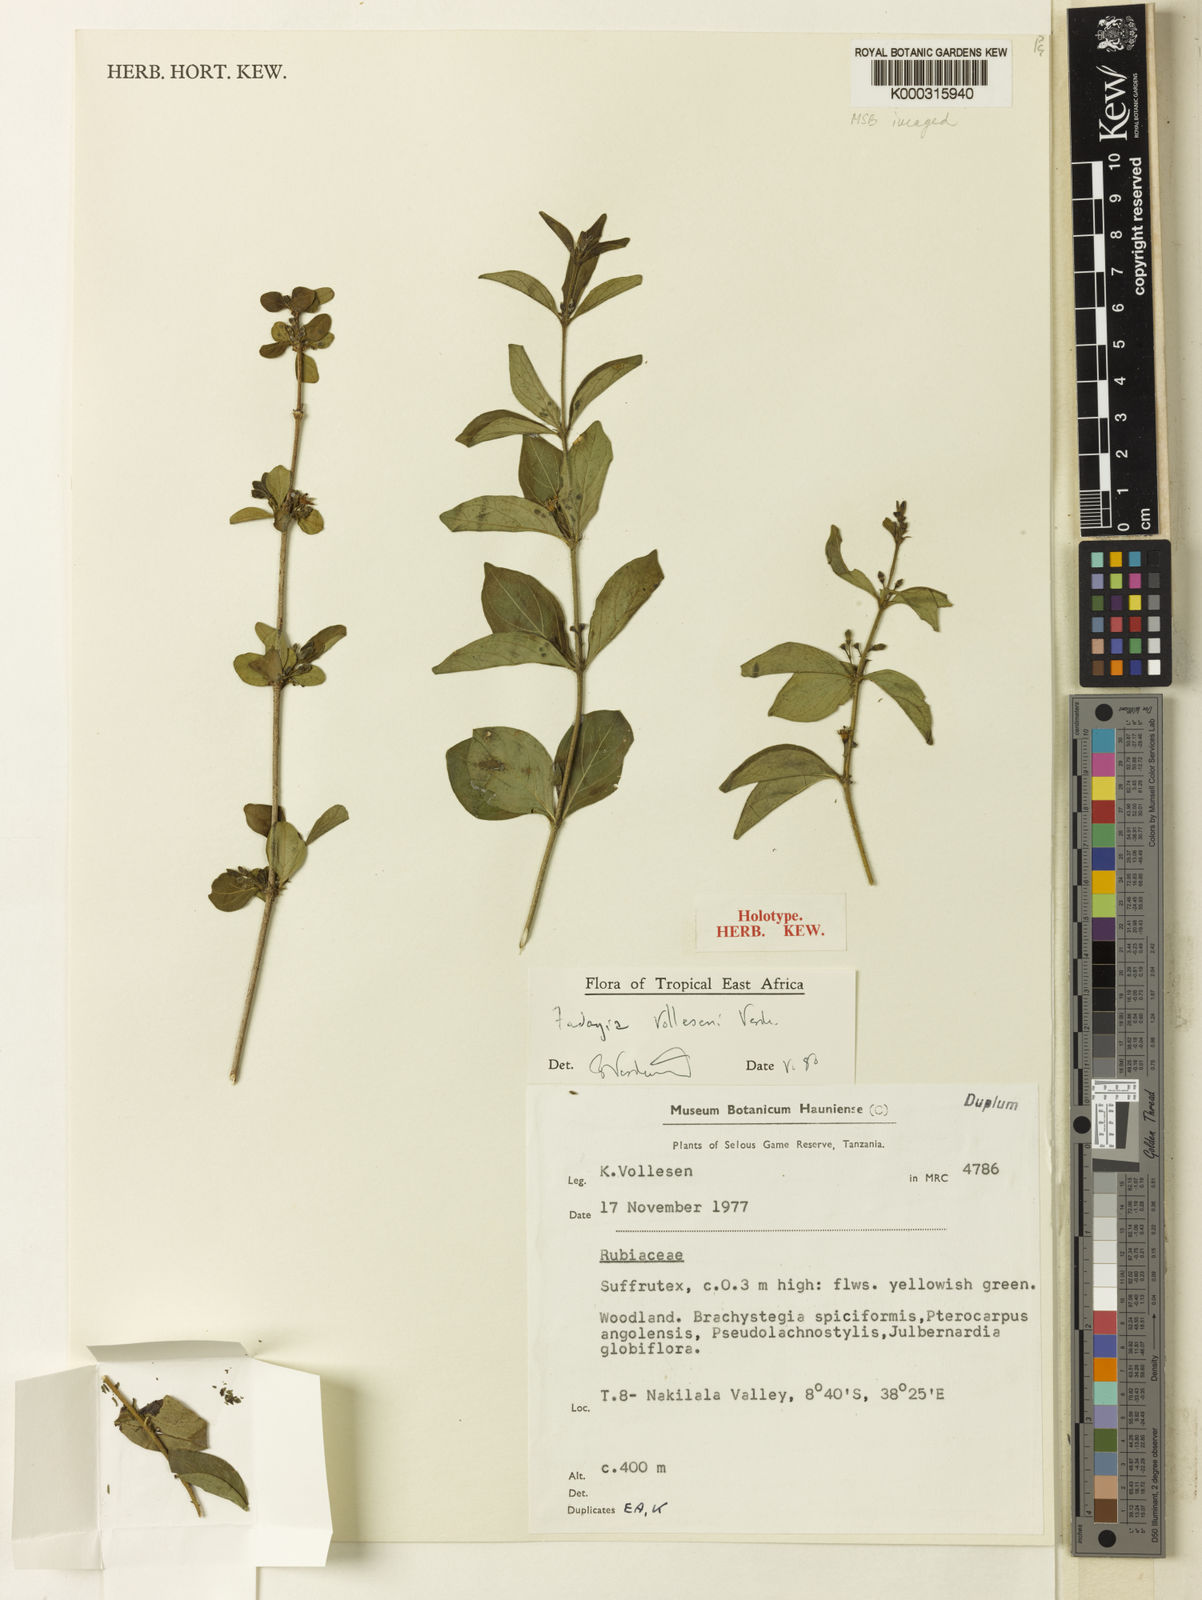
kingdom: Plantae
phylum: Tracheophyta
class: Magnoliopsida
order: Gentianales
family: Rubiaceae
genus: Fadogia
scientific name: Fadogia vollesenii
